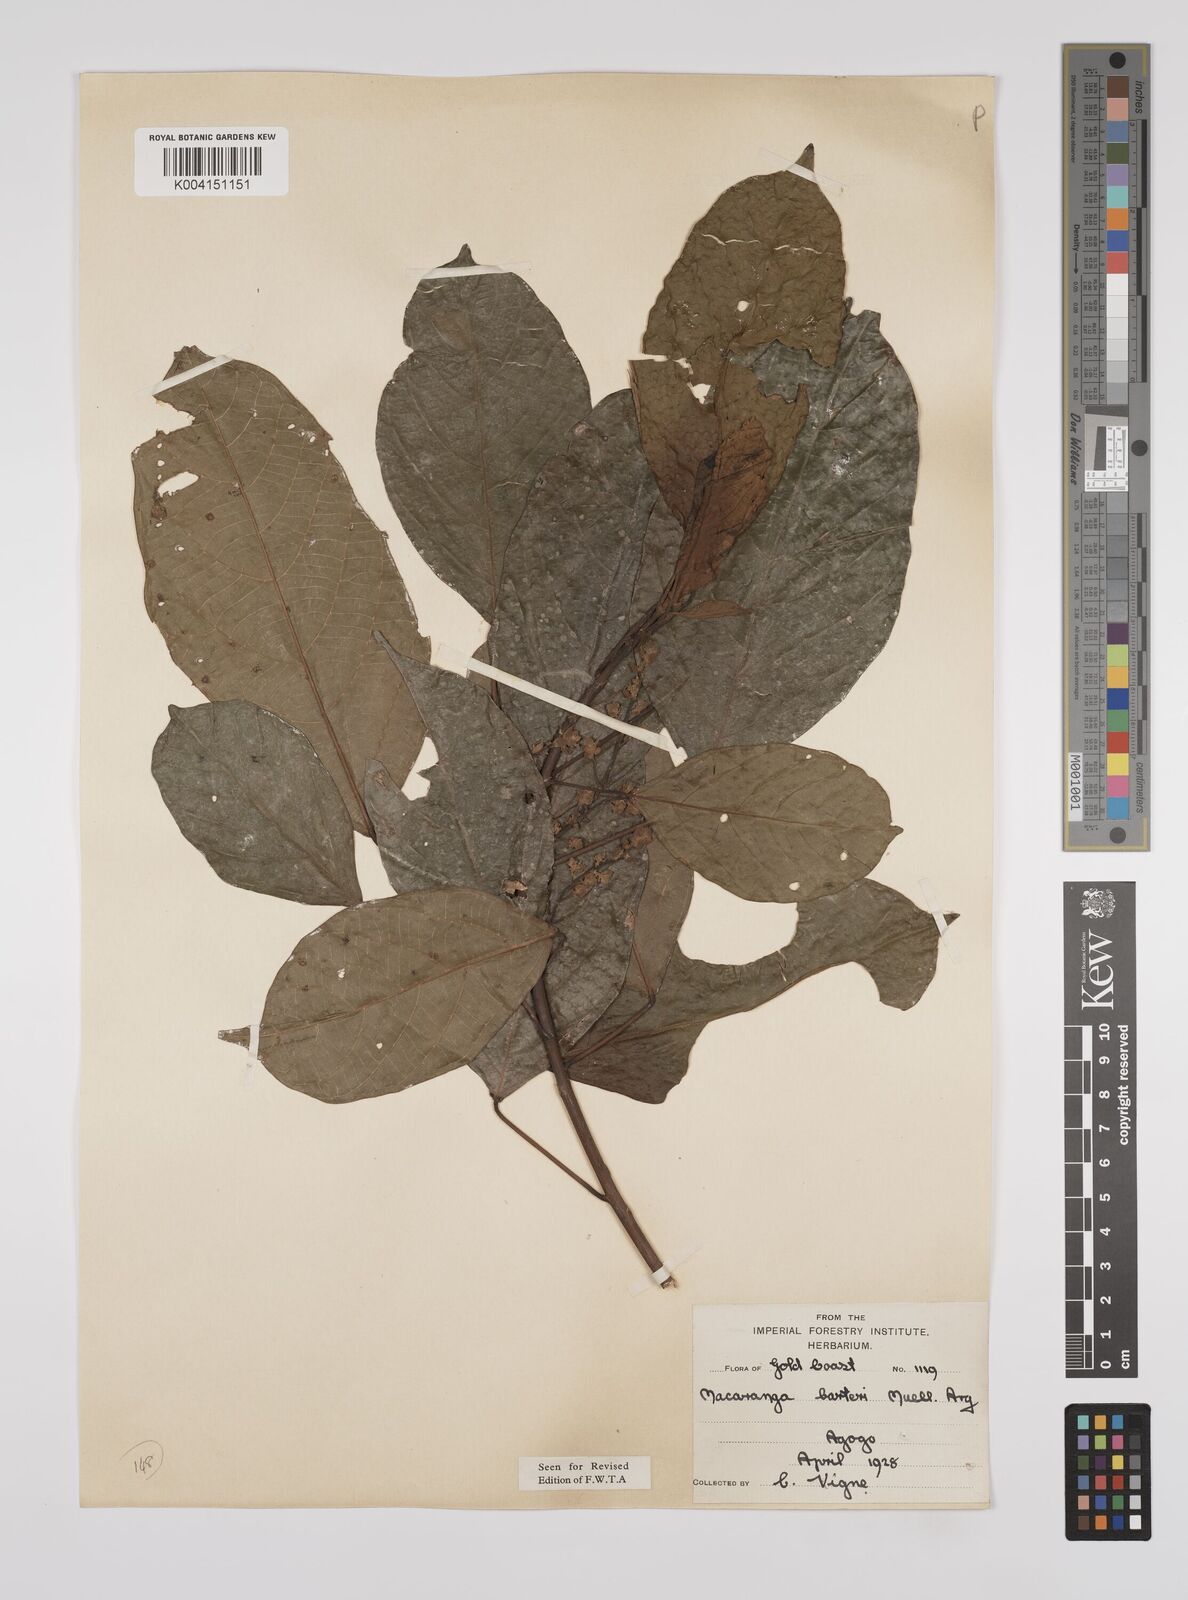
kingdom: Plantae
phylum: Tracheophyta
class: Magnoliopsida
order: Malpighiales
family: Euphorbiaceae
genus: Macaranga
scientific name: Macaranga barteri
